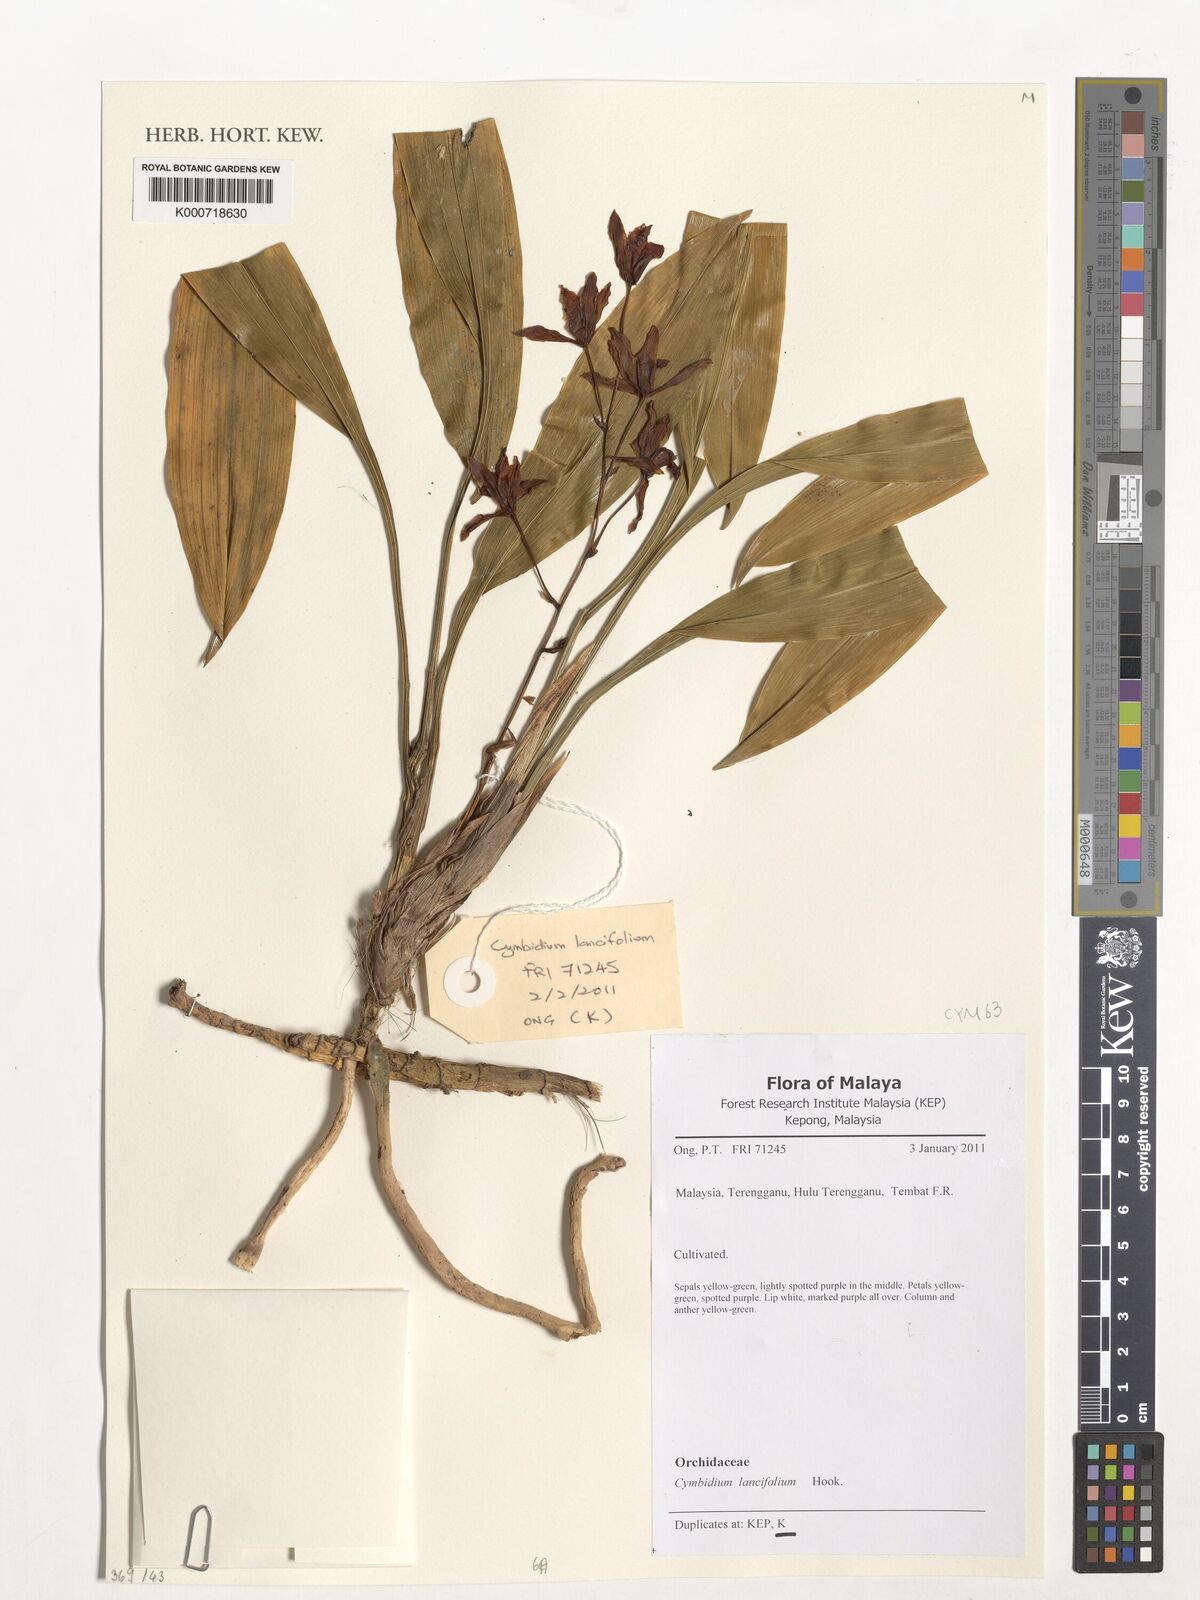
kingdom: Plantae
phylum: Tracheophyta
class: Liliopsida
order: Asparagales
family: Orchidaceae
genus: Cymbidium
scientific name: Cymbidium lancifolium
